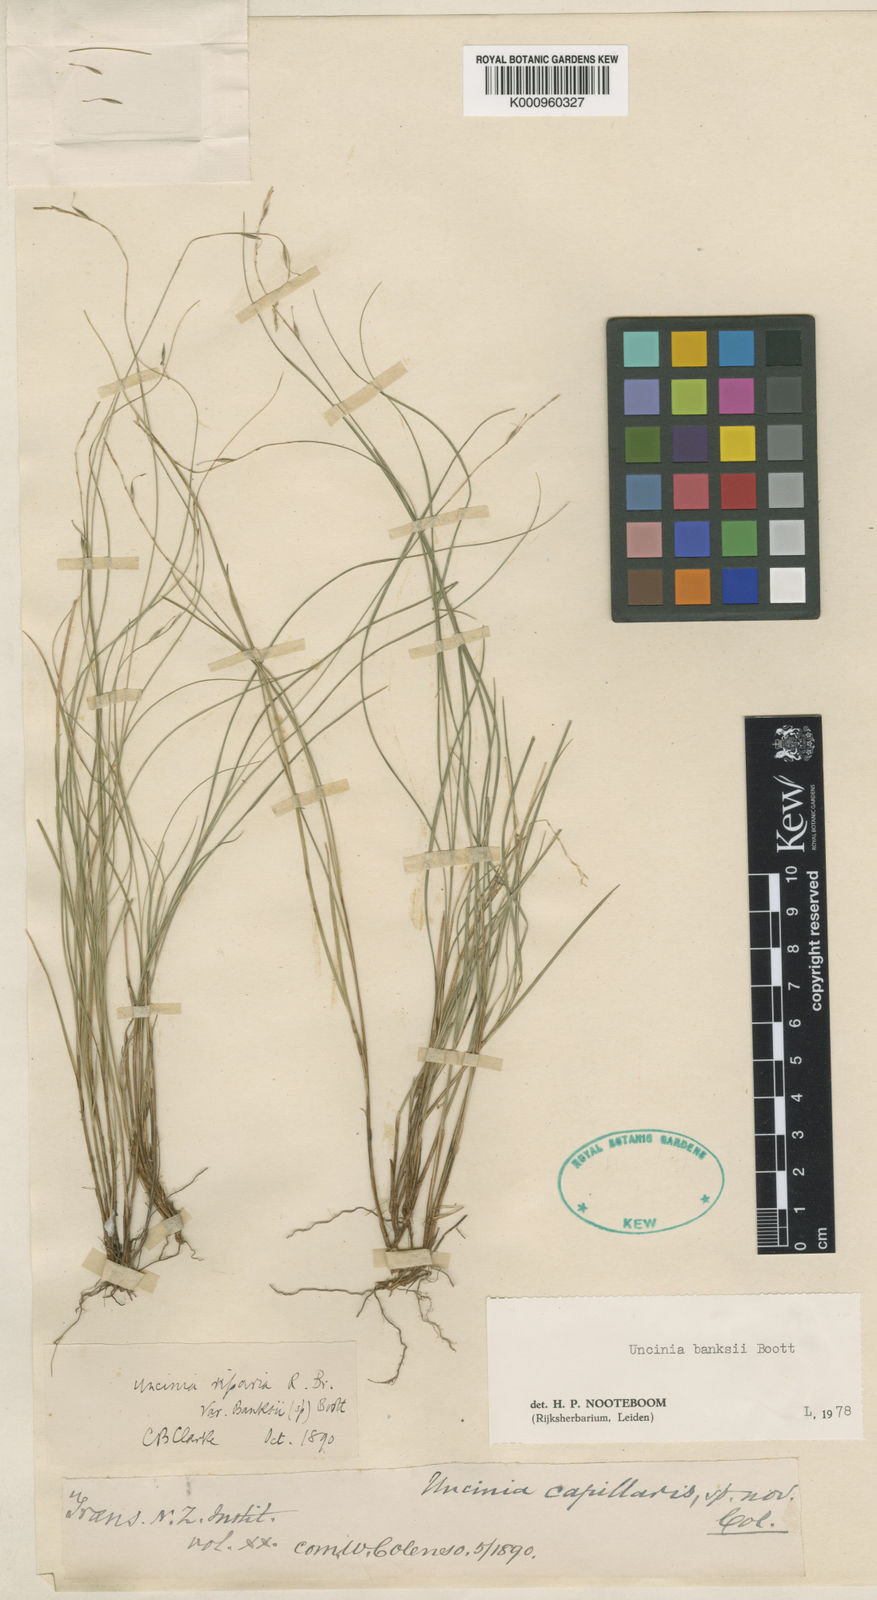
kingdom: Plantae
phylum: Tracheophyta
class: Liliopsida
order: Poales
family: Cyperaceae
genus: Carex
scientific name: Carex umbricola
